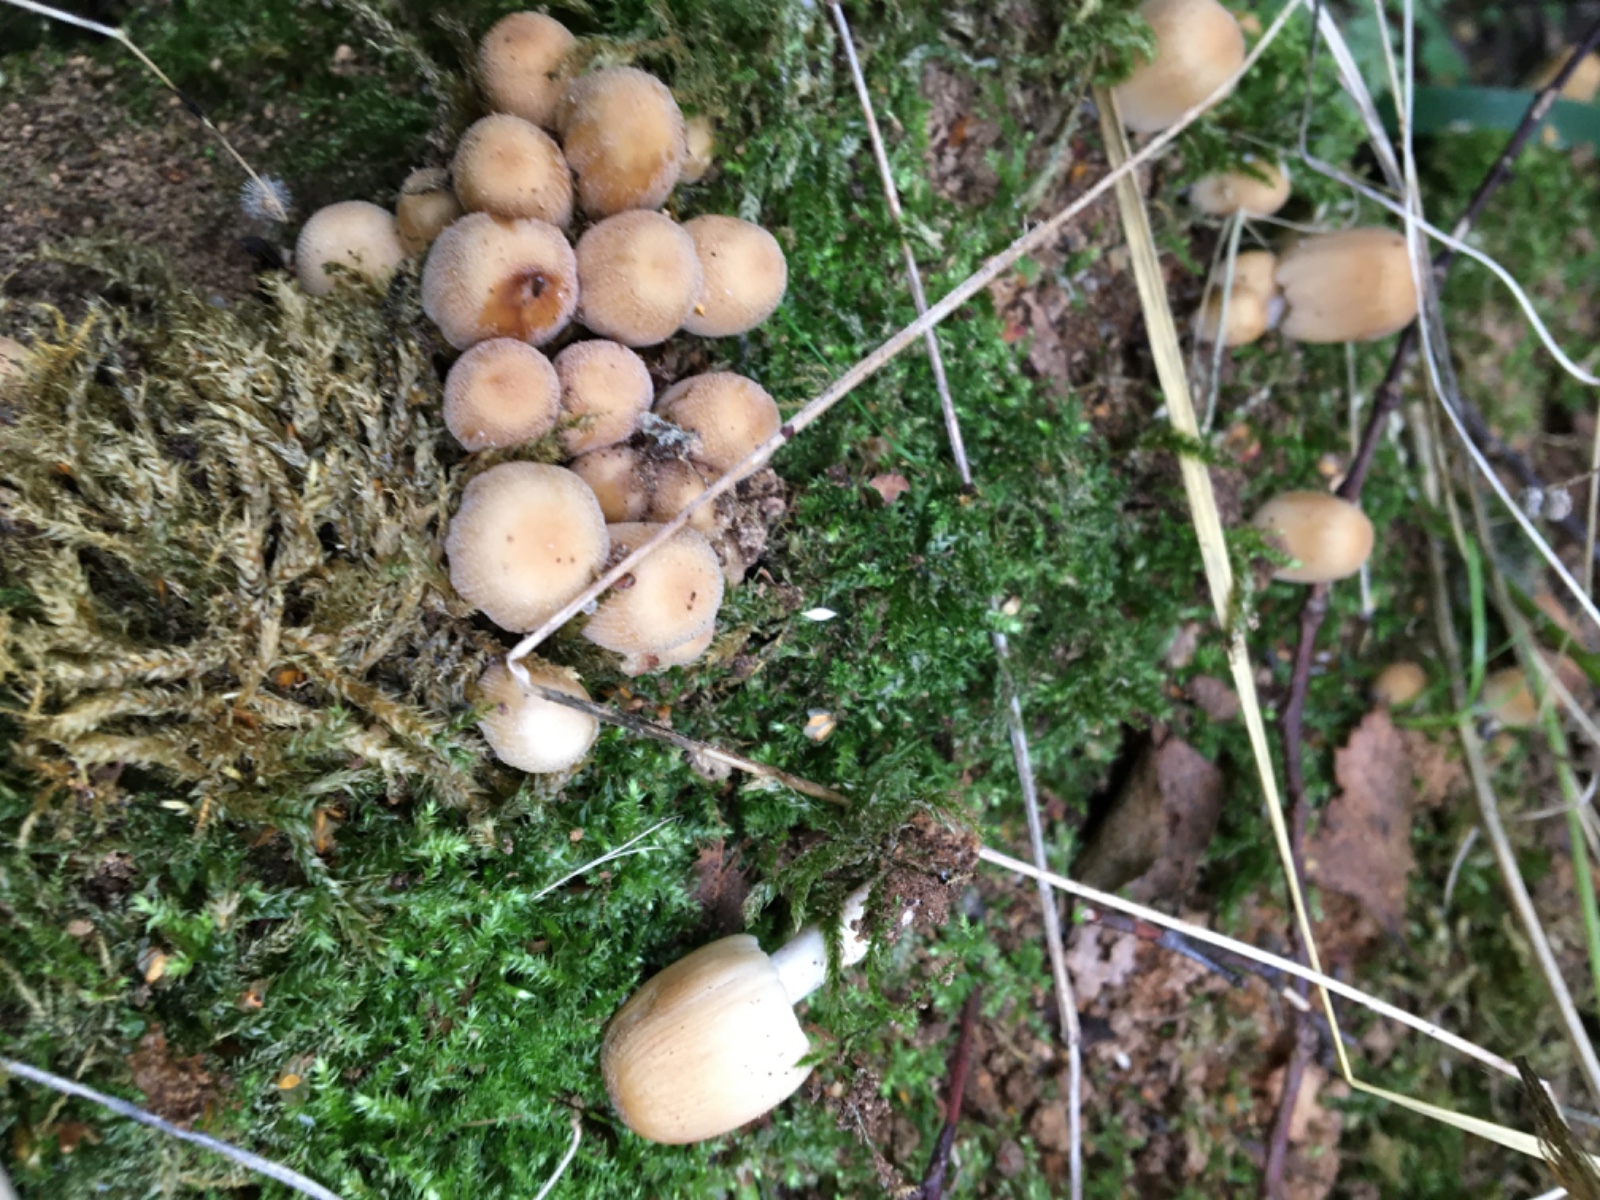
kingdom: Fungi
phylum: Basidiomycota
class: Agaricomycetes
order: Agaricales
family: Psathyrellaceae
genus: Coprinellus
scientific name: Coprinellus micaceus
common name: glimmer-blækhat
